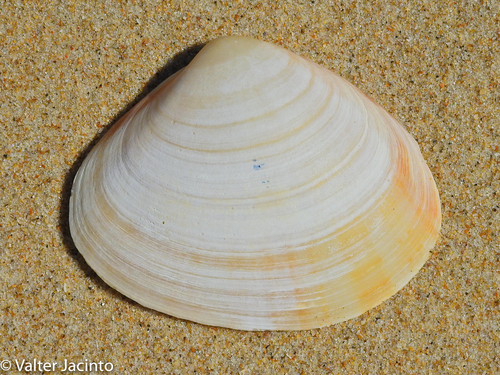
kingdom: Animalia
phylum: Mollusca
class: Bivalvia
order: Venerida
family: Mactridae
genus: Mactra
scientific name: Mactra glauca
